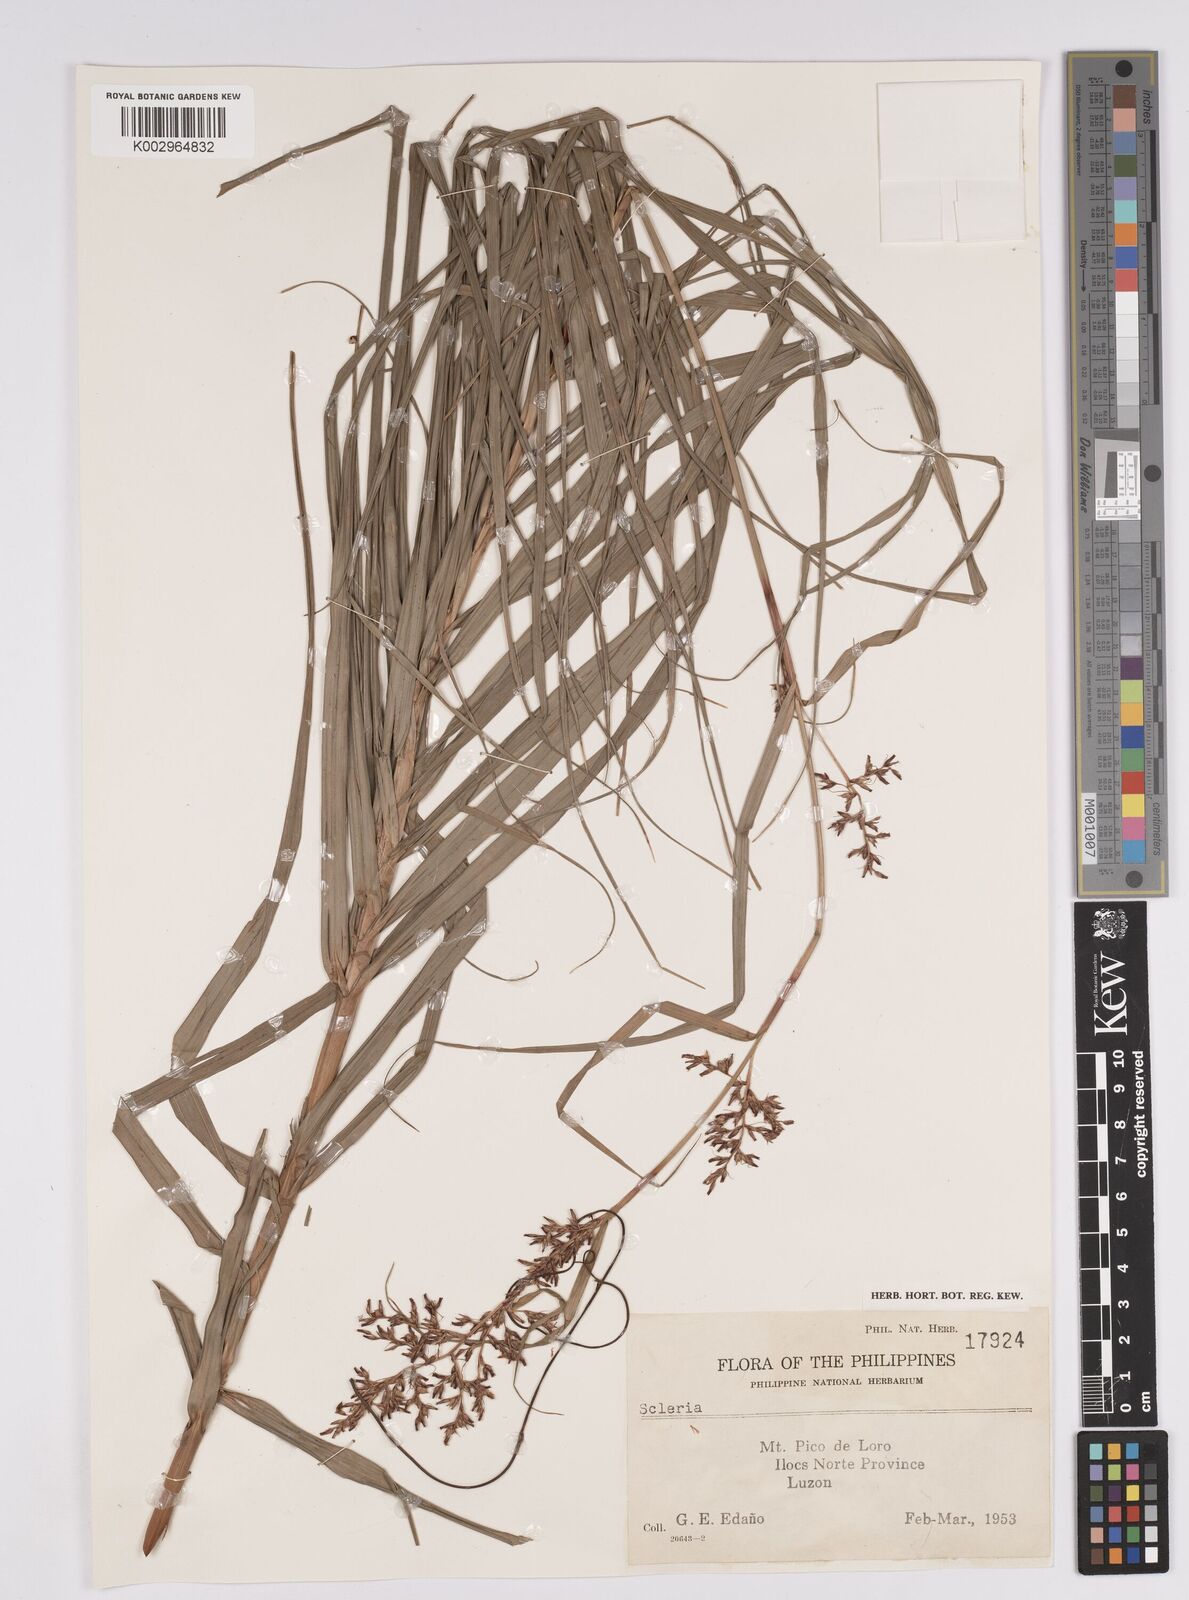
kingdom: Plantae
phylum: Tracheophyta
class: Liliopsida
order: Poales
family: Cyperaceae
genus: Scleria
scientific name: Scleria
